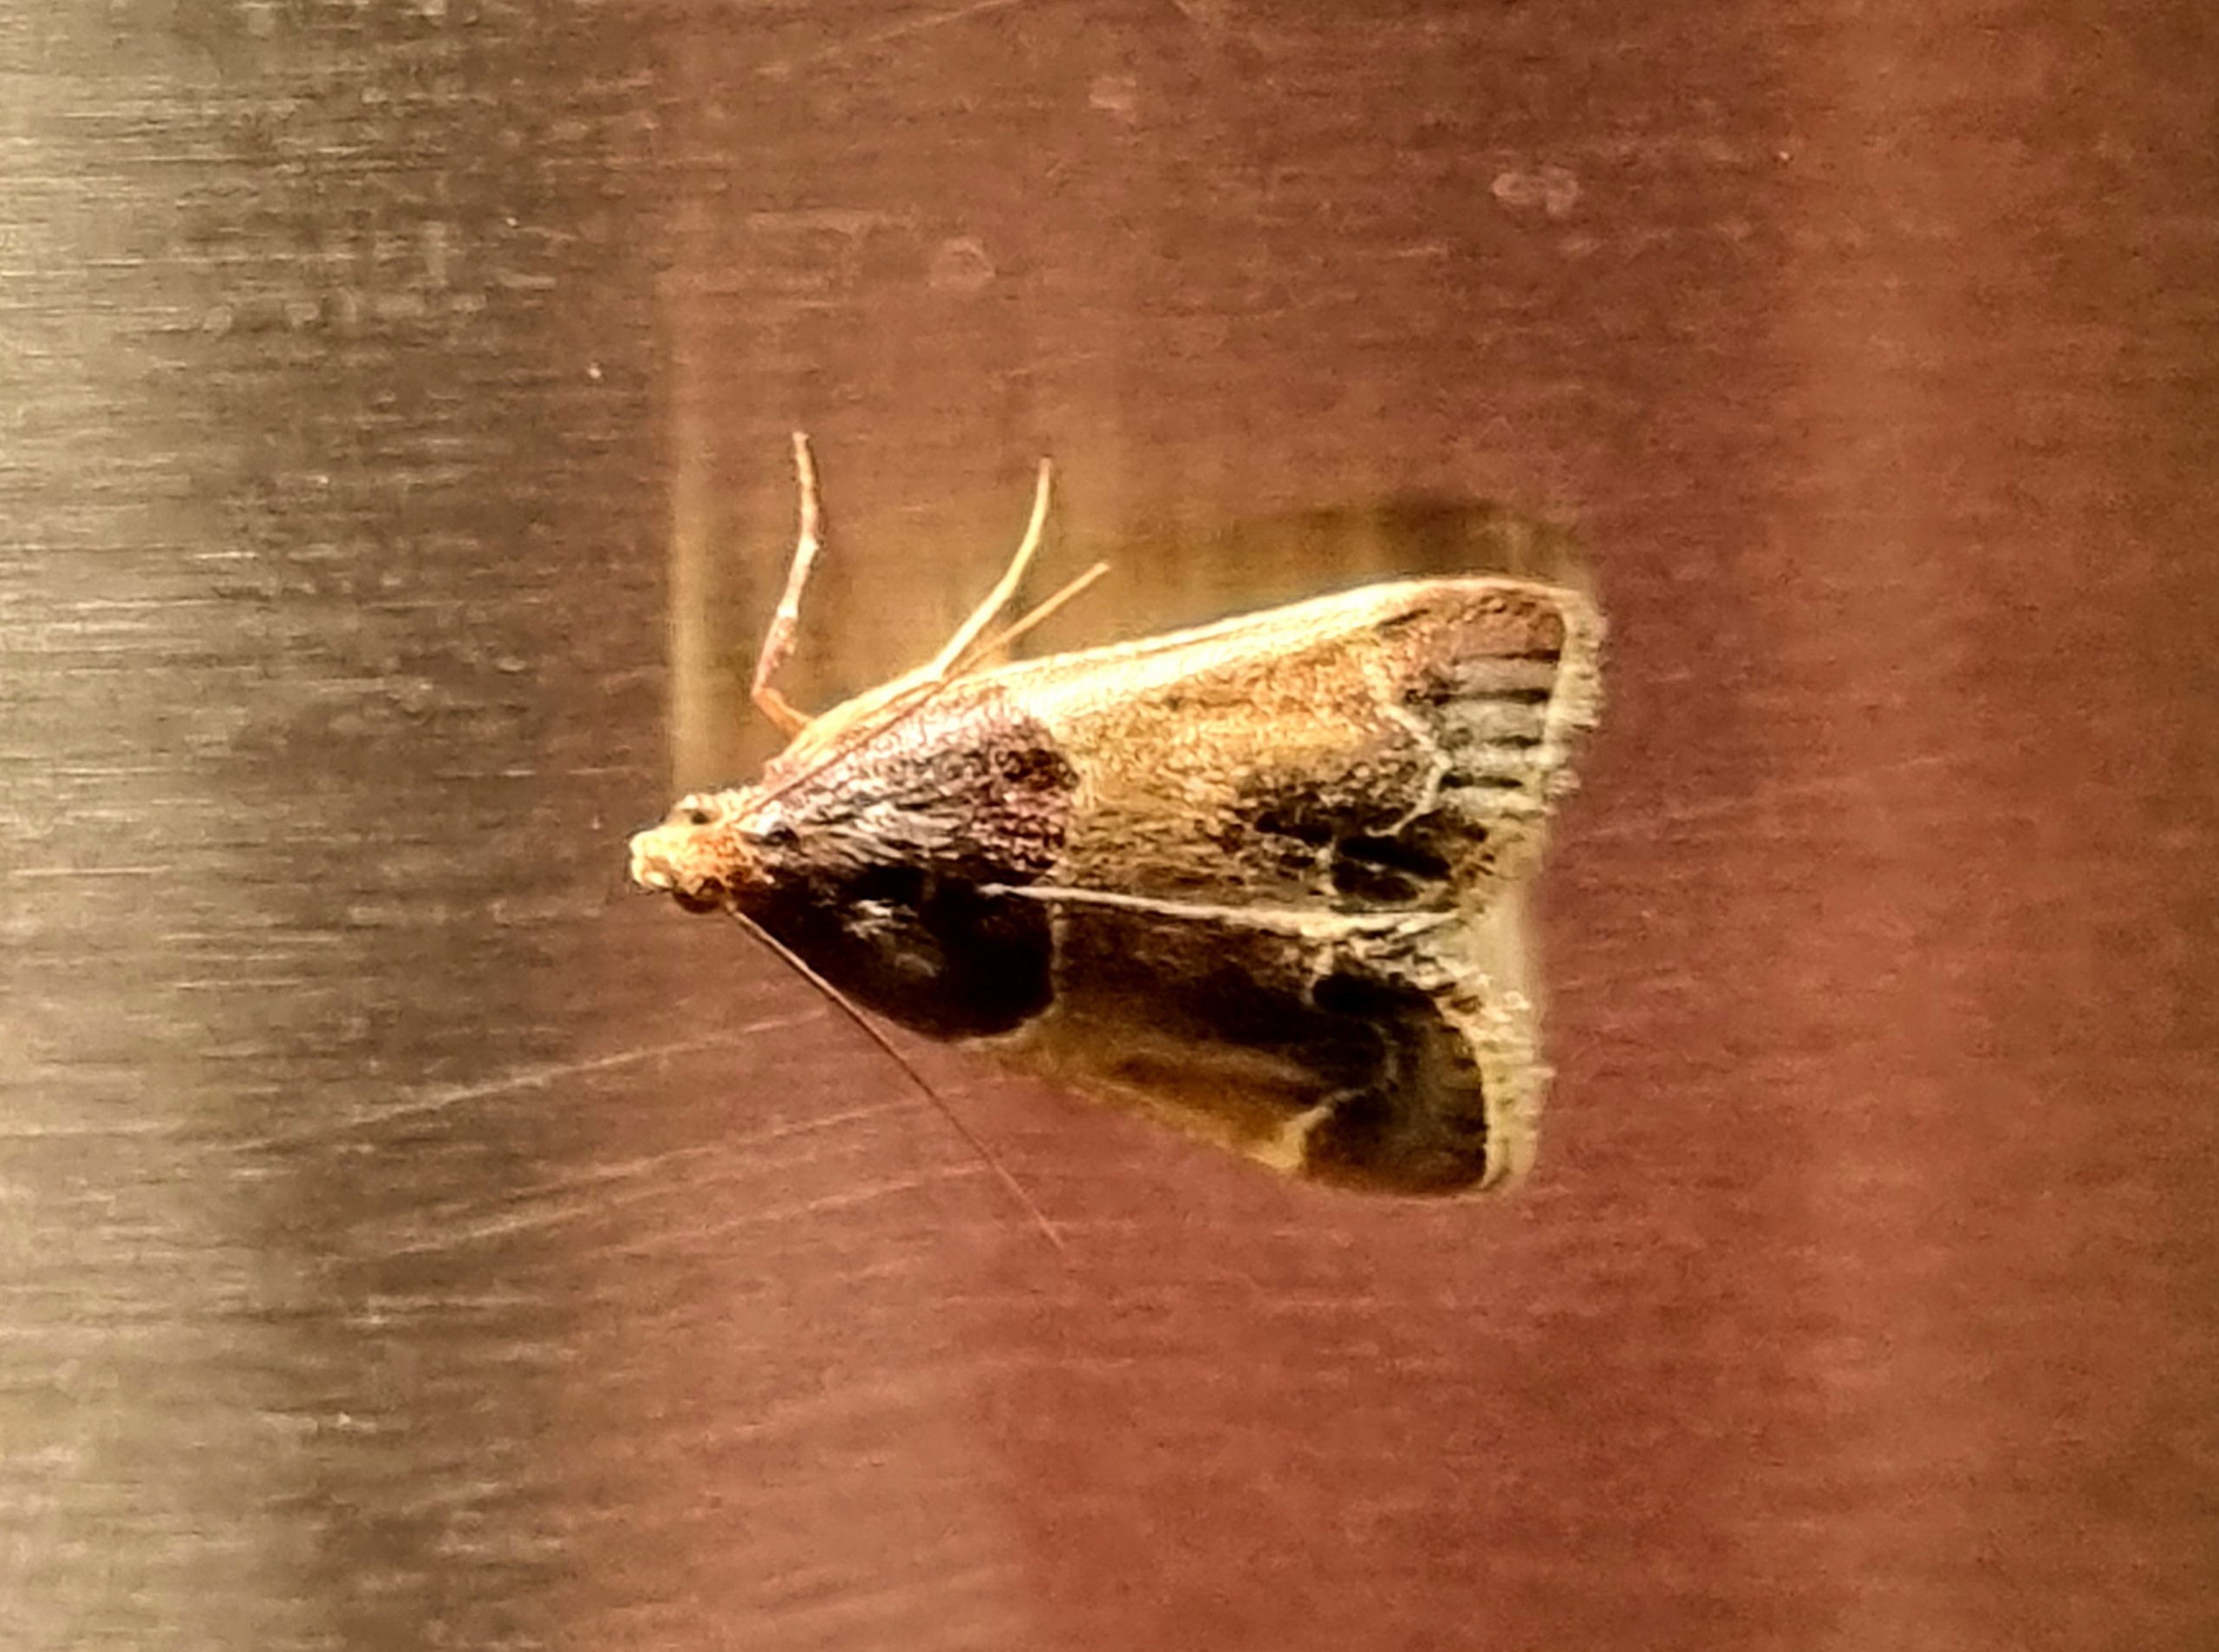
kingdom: Animalia
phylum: Arthropoda
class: Insecta
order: Lepidoptera
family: Pyralidae
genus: Pyralis
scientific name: Pyralis farinalis
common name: Stort melmøl
